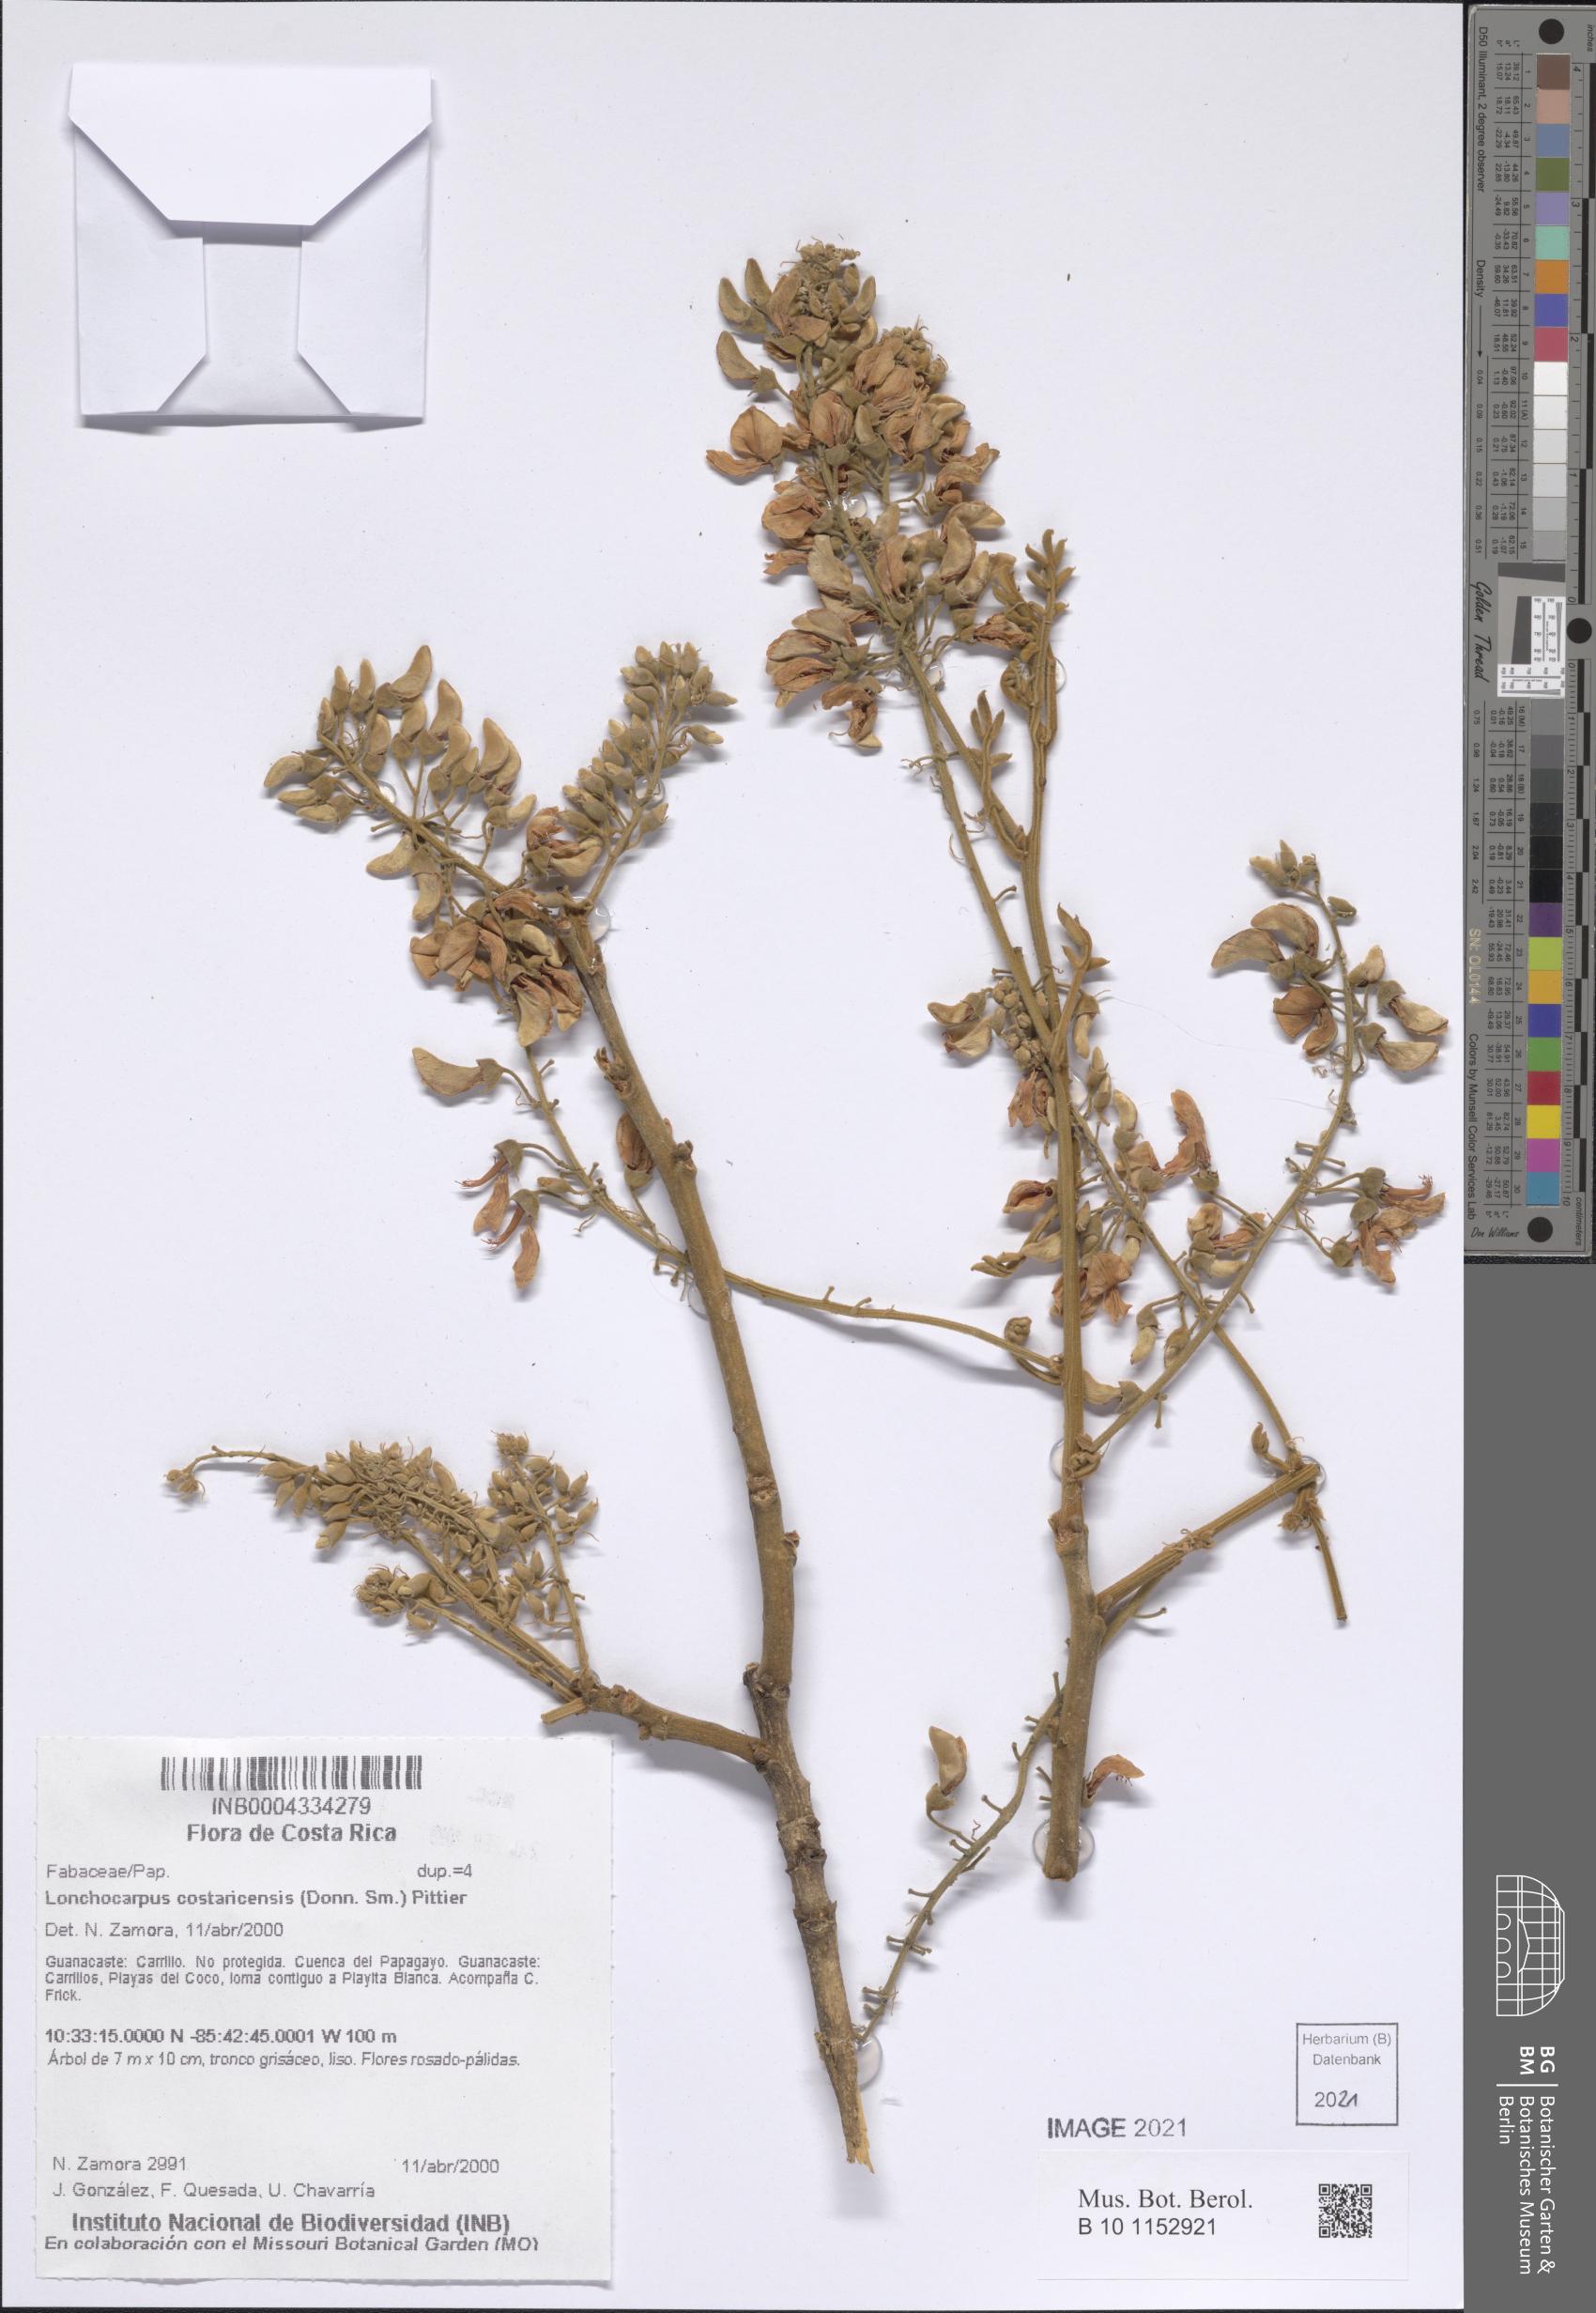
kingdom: Plantae
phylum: Tracheophyta
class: Magnoliopsida
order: Fabales
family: Fabaceae
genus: Lonchocarpus
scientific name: Lonchocarpus costaricensis
